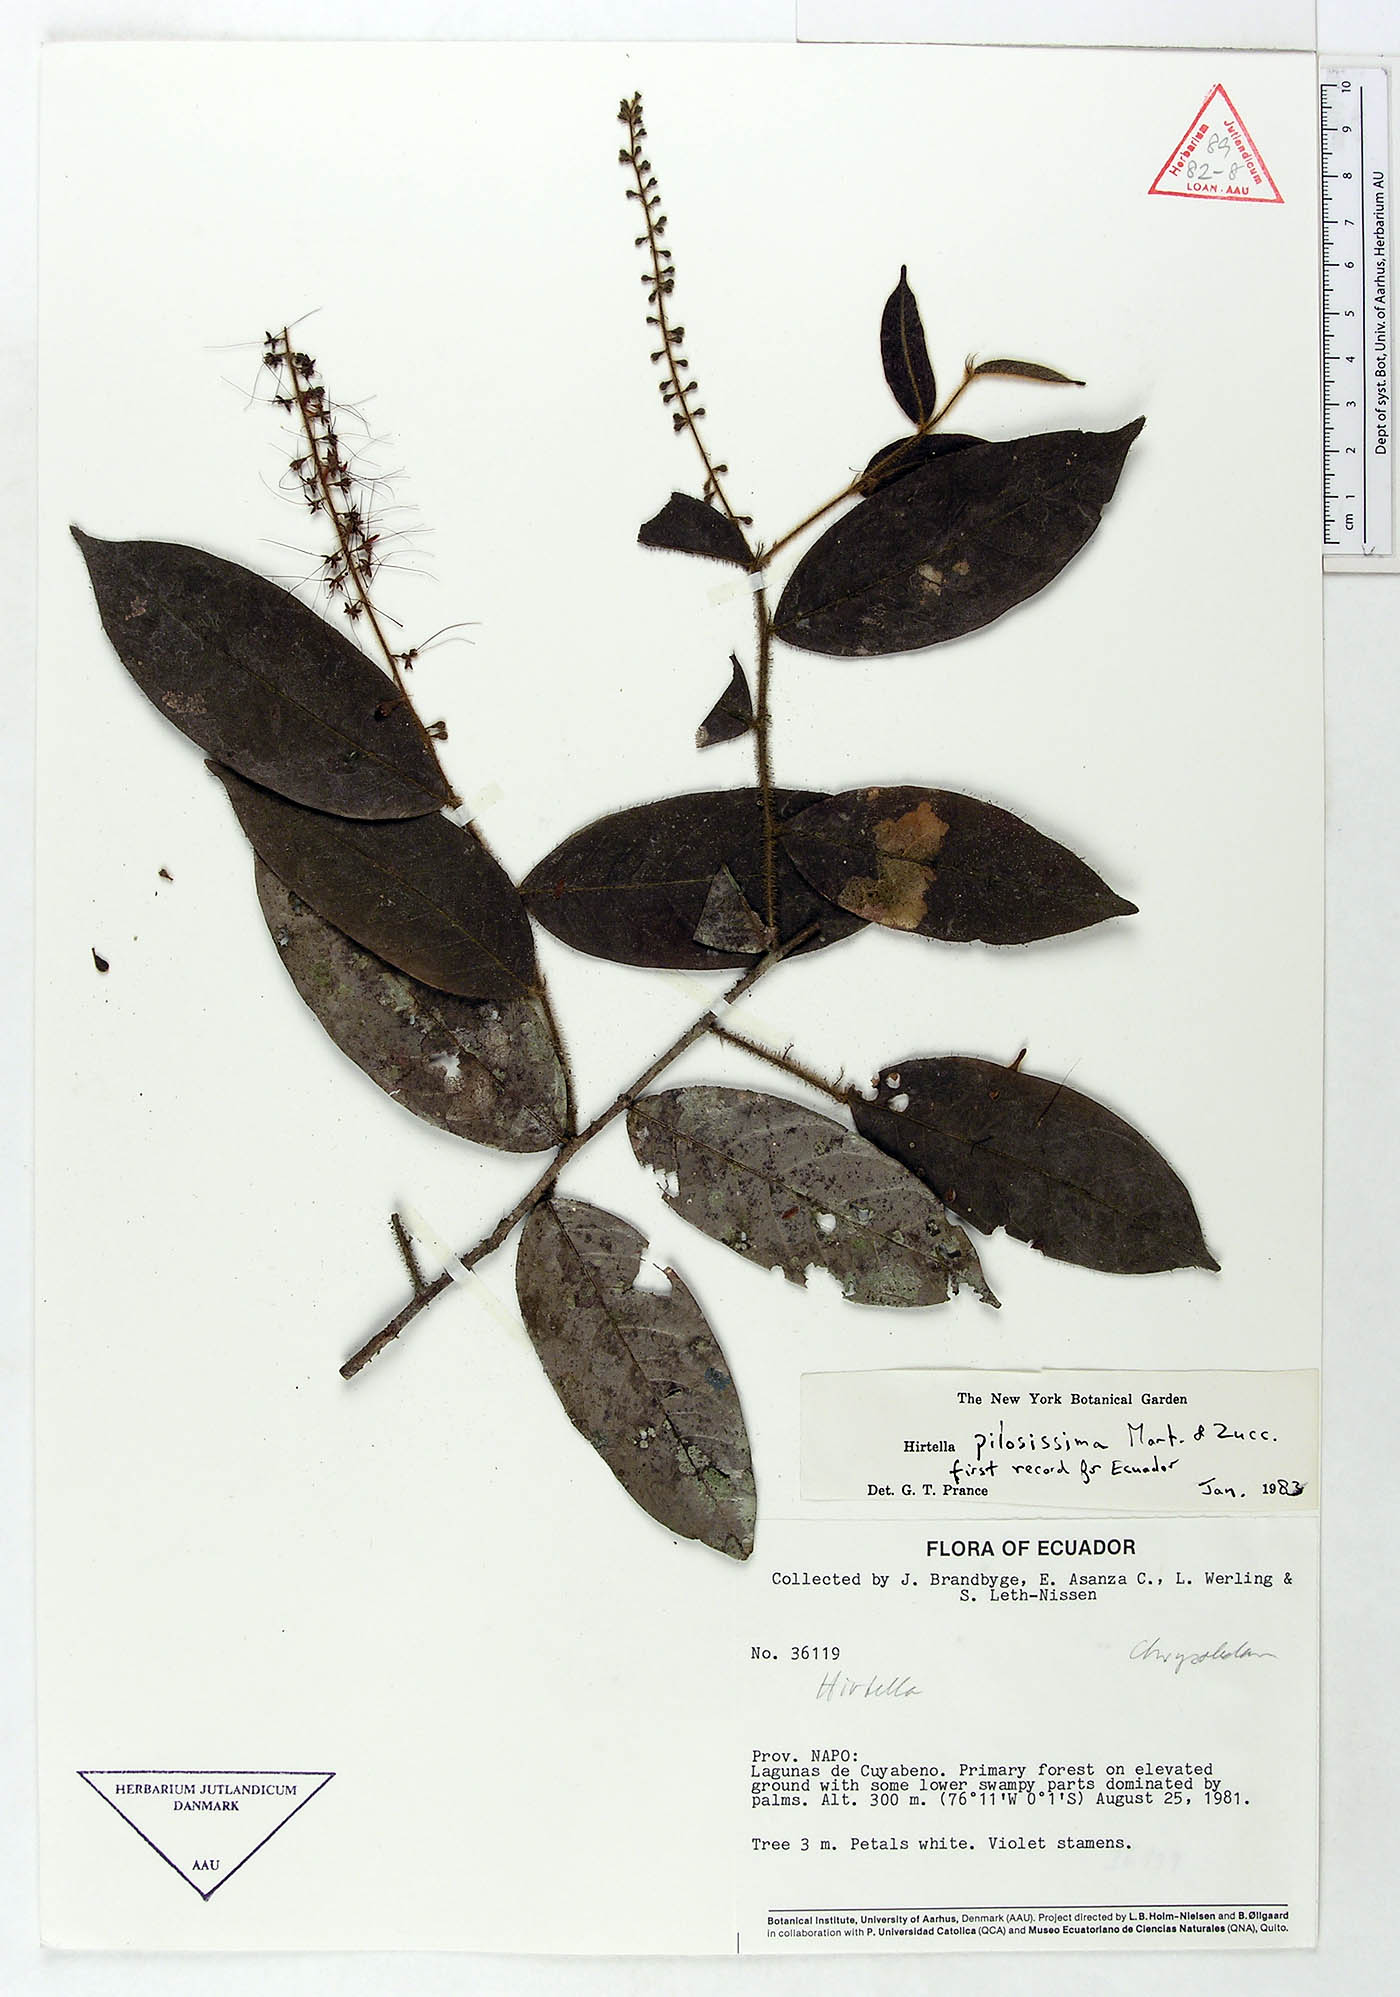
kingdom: Plantae
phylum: Tracheophyta
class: Magnoliopsida
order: Malpighiales
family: Chrysobalanaceae
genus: Hirtella
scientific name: Hirtella pilosissima
